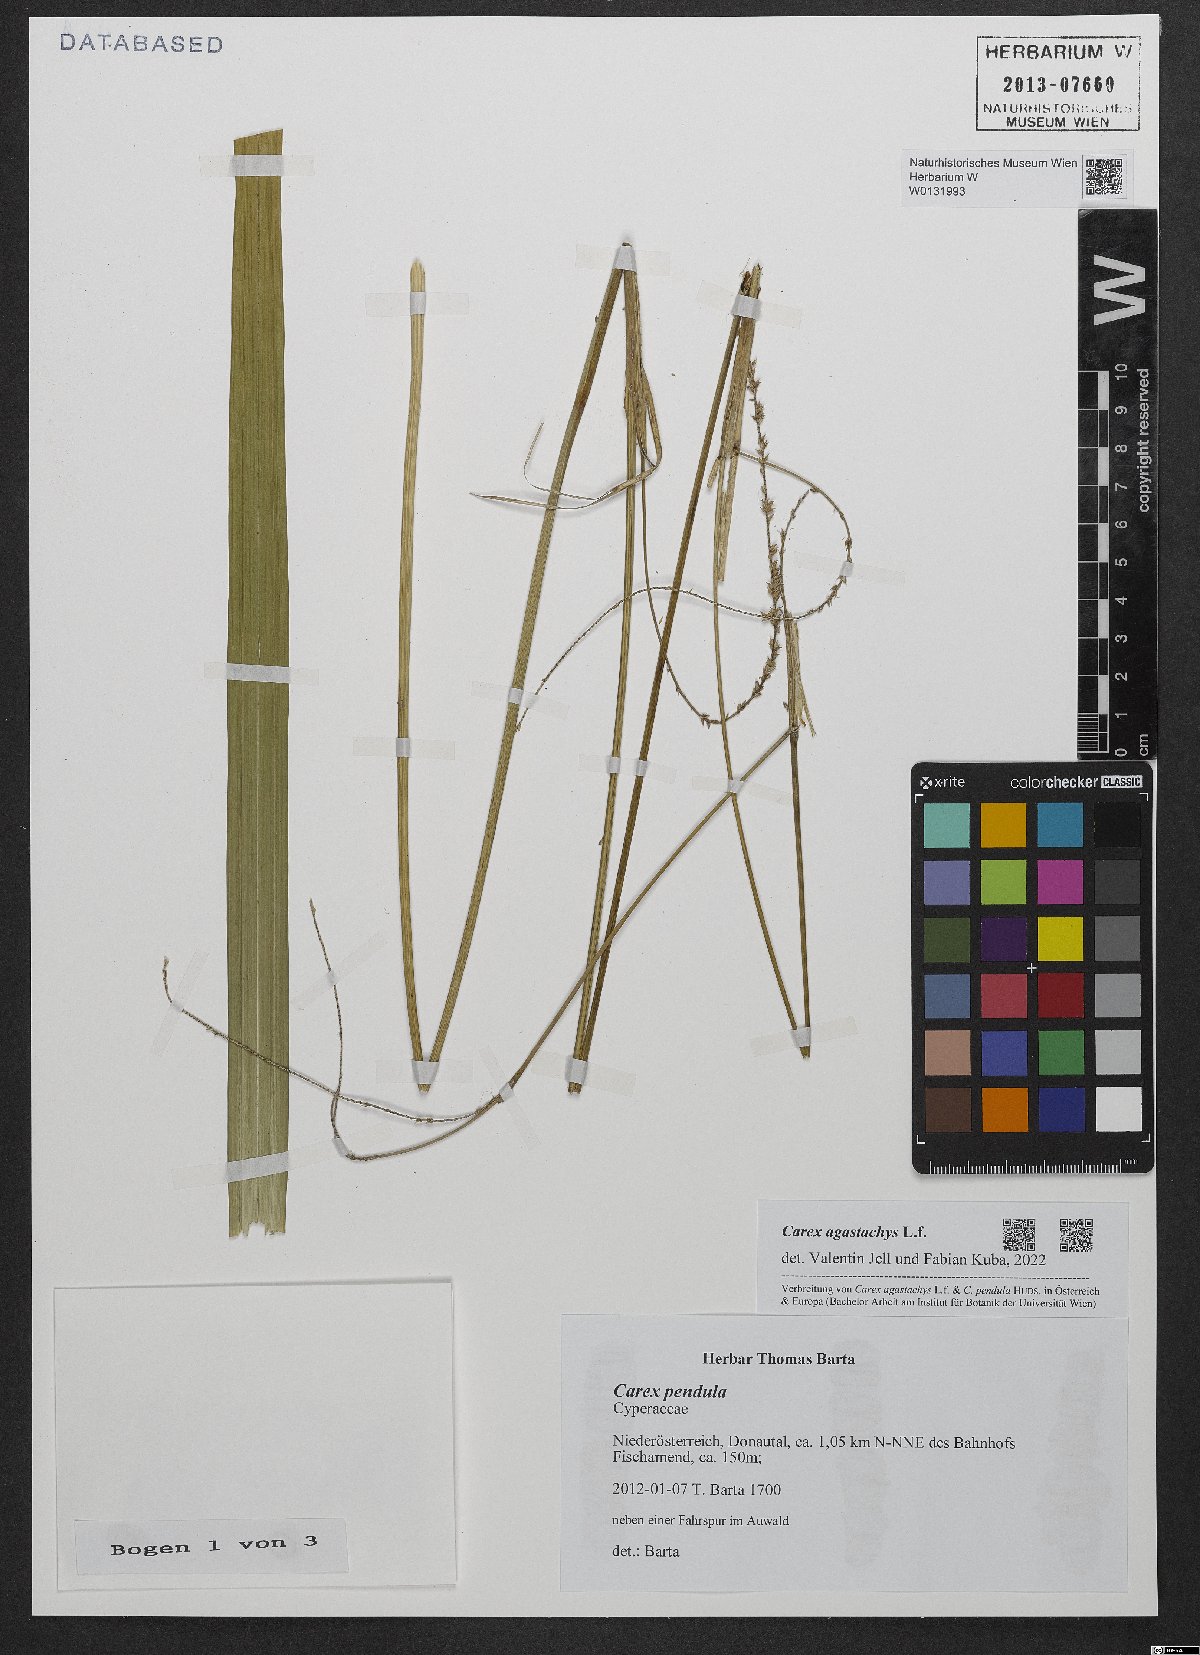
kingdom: Plantae
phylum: Tracheophyta
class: Liliopsida
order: Poales
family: Cyperaceae
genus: Carex
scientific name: Carex agastachys
